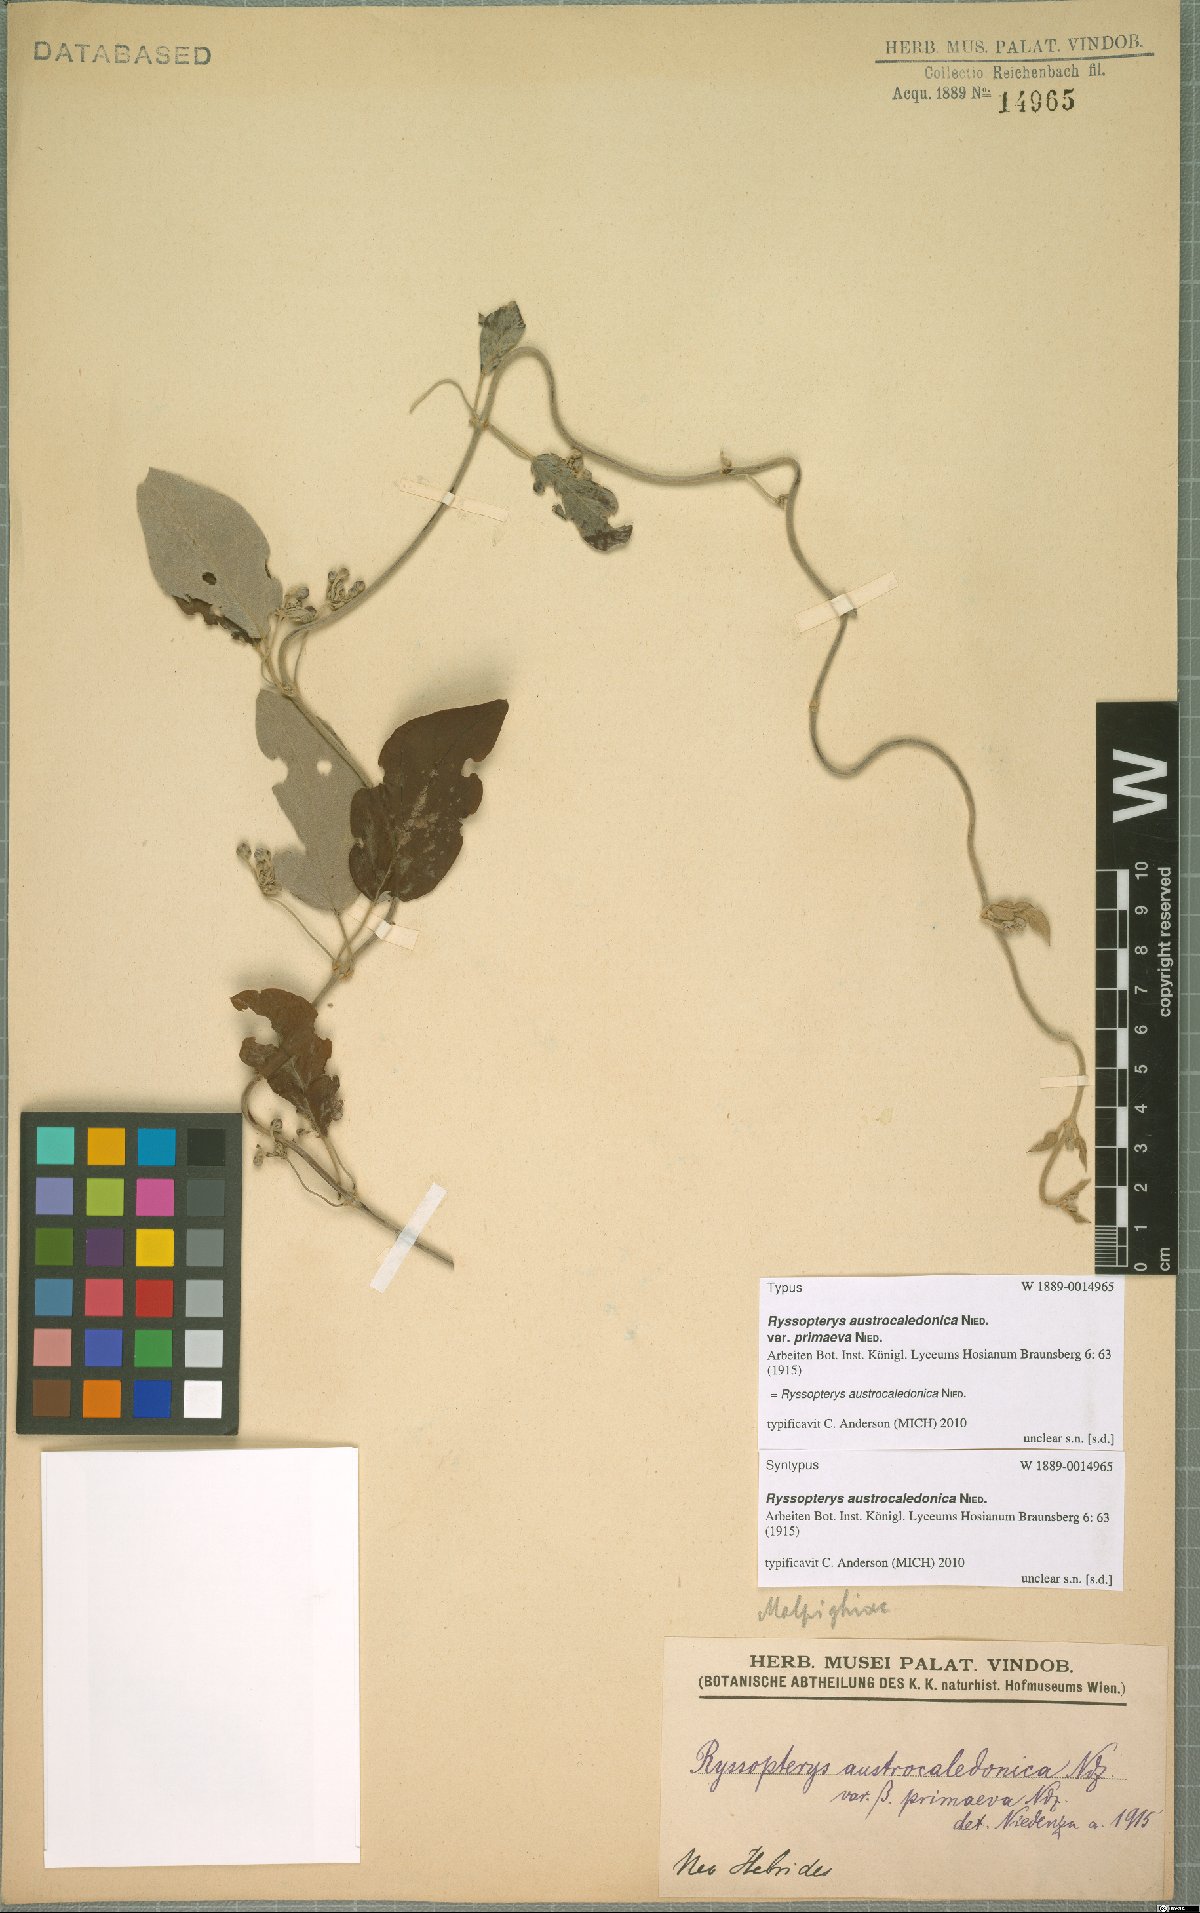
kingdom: Plantae
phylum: Tracheophyta
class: Magnoliopsida
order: Malpighiales
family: Malpighiaceae
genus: Stigmaphyllon
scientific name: Stigmaphyllon discolor
